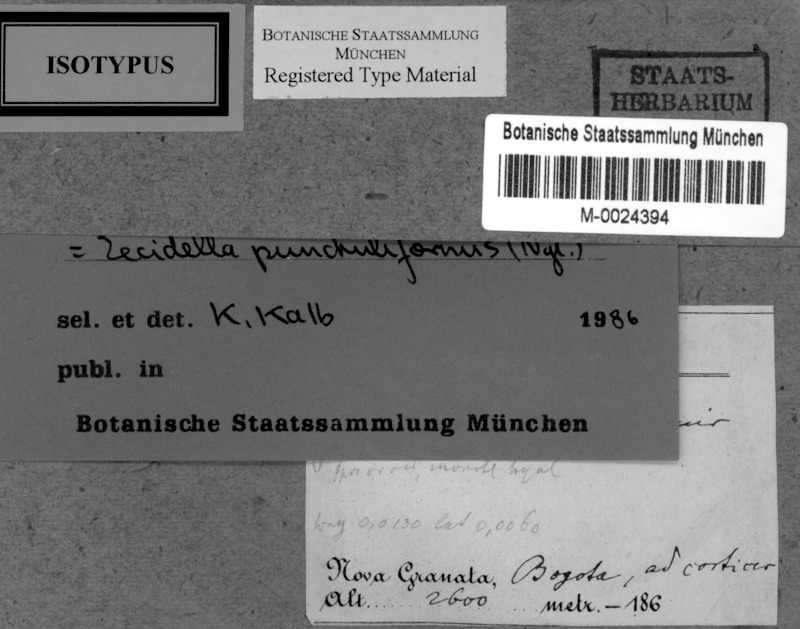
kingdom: Fungi
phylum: Ascomycota
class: Lecanoromycetes
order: Lecanorales
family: Lecanoraceae
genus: Lecidella
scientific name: Lecidella punctuliformis
